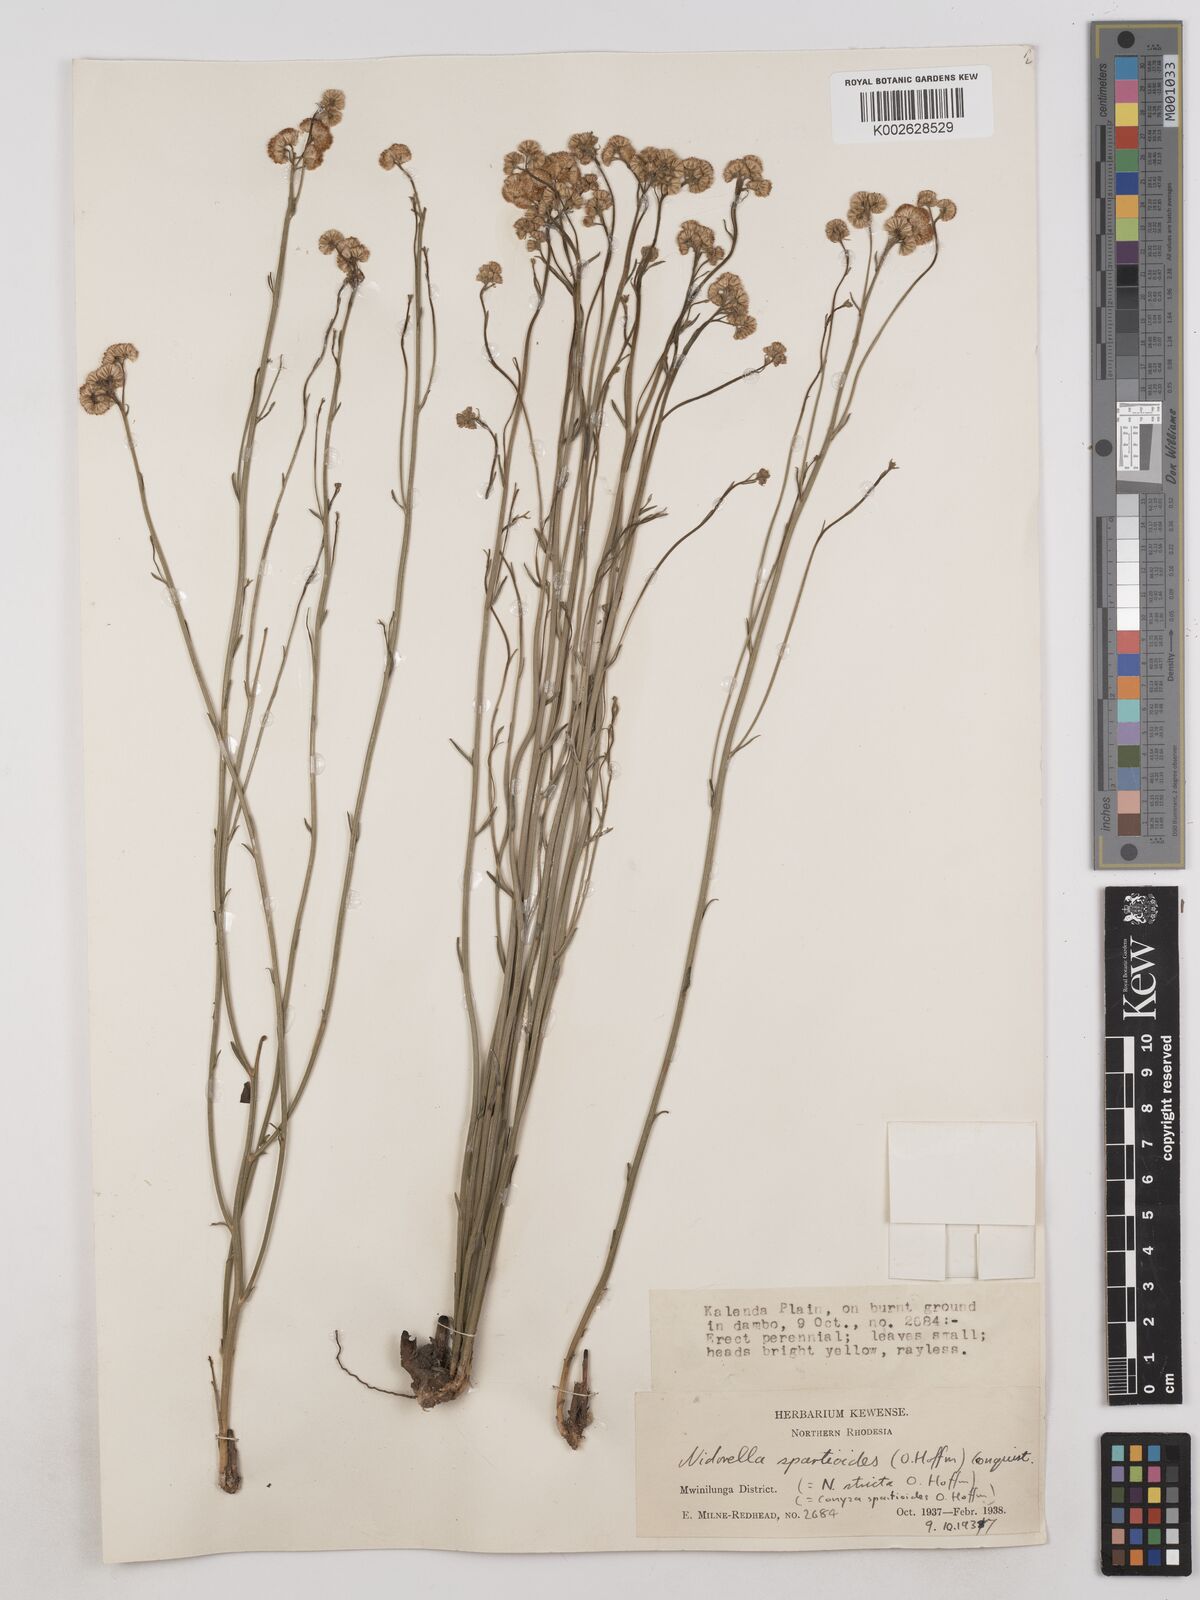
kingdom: Plantae
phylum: Tracheophyta
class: Magnoliopsida
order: Asterales
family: Asteraceae
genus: Nidorella
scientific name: Nidorella spartioides
